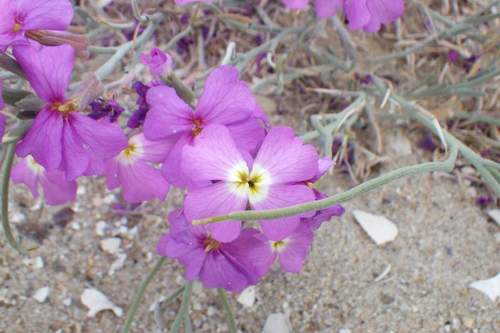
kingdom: Plantae
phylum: Tracheophyta
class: Magnoliopsida
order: Brassicales
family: Brassicaceae
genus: Marcuskochia
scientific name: Marcuskochia littorea
